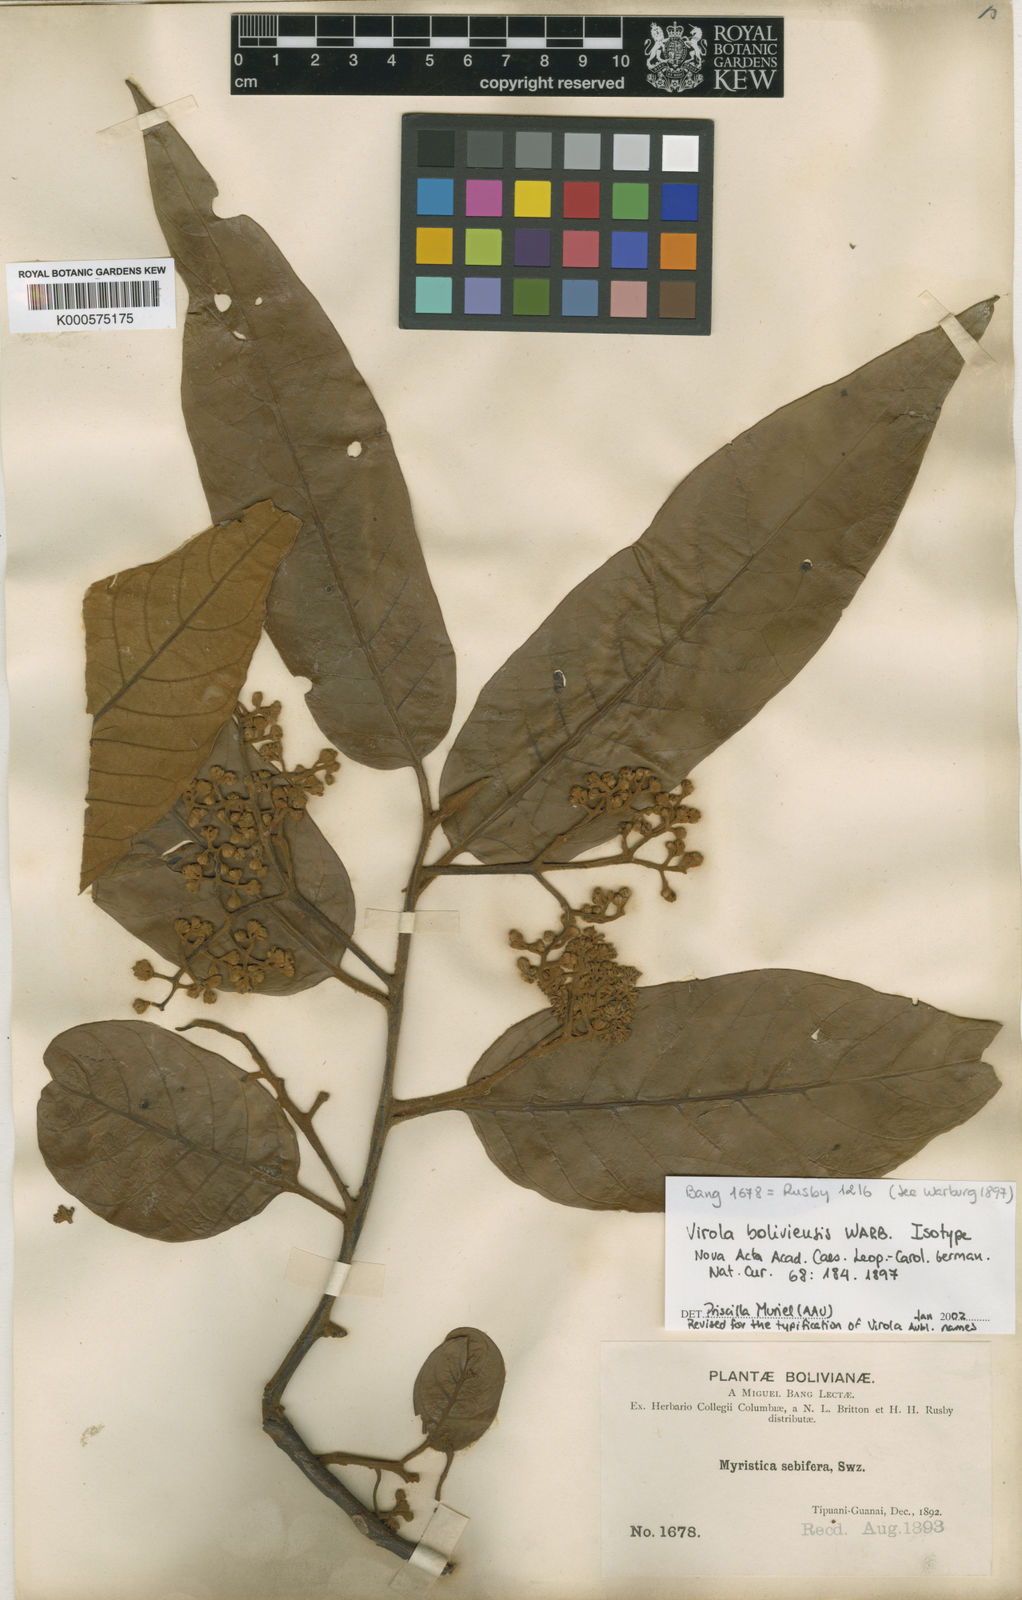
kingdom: Plantae
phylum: Tracheophyta
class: Magnoliopsida
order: Magnoliales
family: Myristicaceae
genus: Virola
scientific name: Virola sebifera
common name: Red ucuuba
